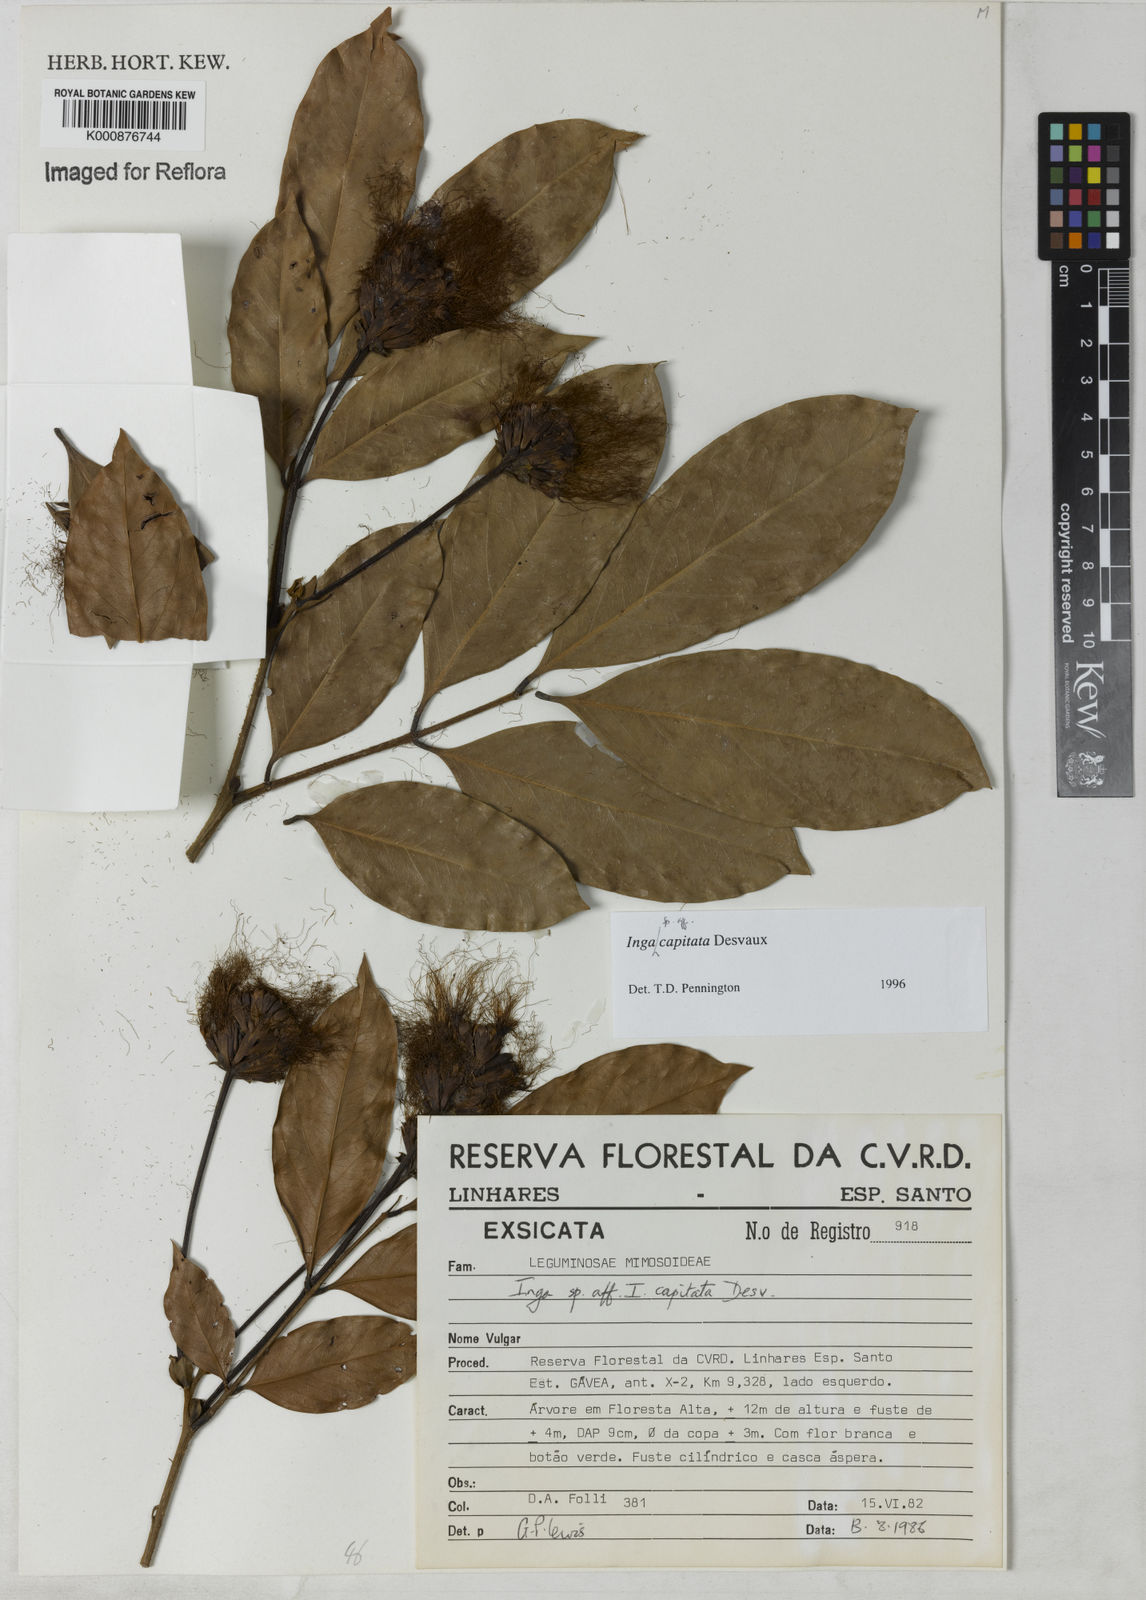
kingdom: Plantae
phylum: Tracheophyta
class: Magnoliopsida
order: Fabales
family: Fabaceae
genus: Inga
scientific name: Inga capitata
